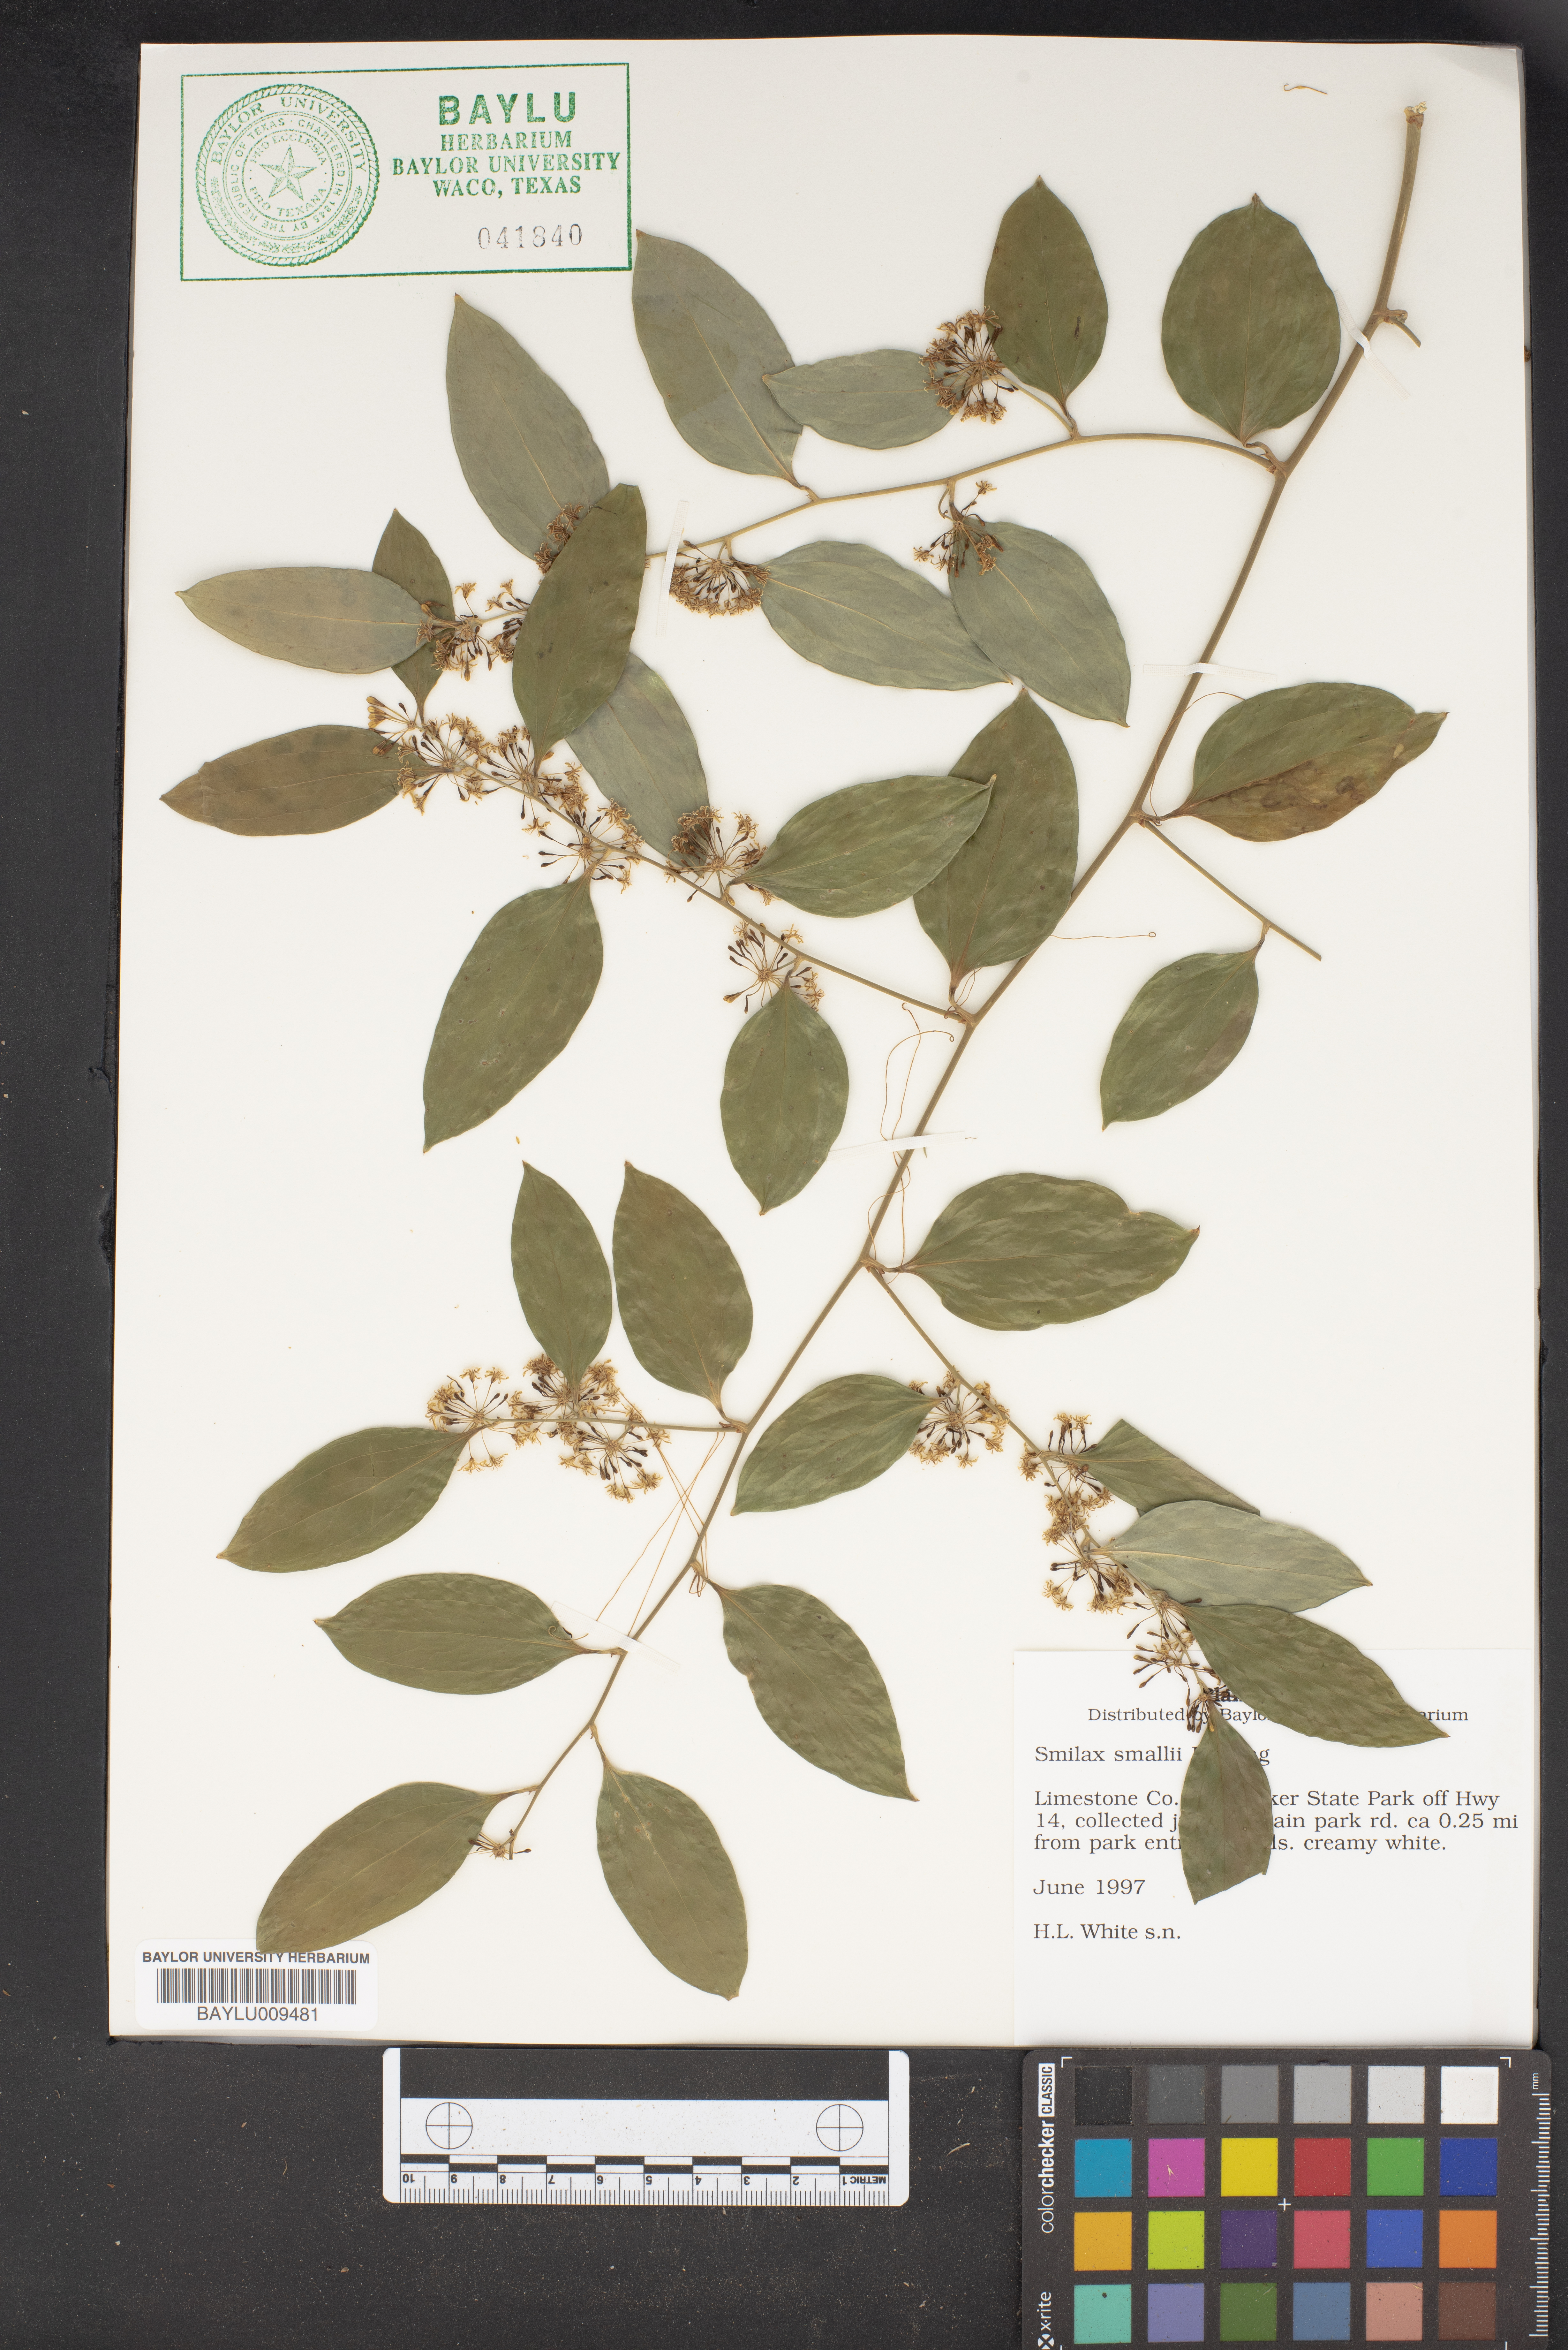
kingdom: Plantae
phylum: Tracheophyta
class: Liliopsida
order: Liliales
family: Smilacaceae
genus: Smilax
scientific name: Smilax maritima
